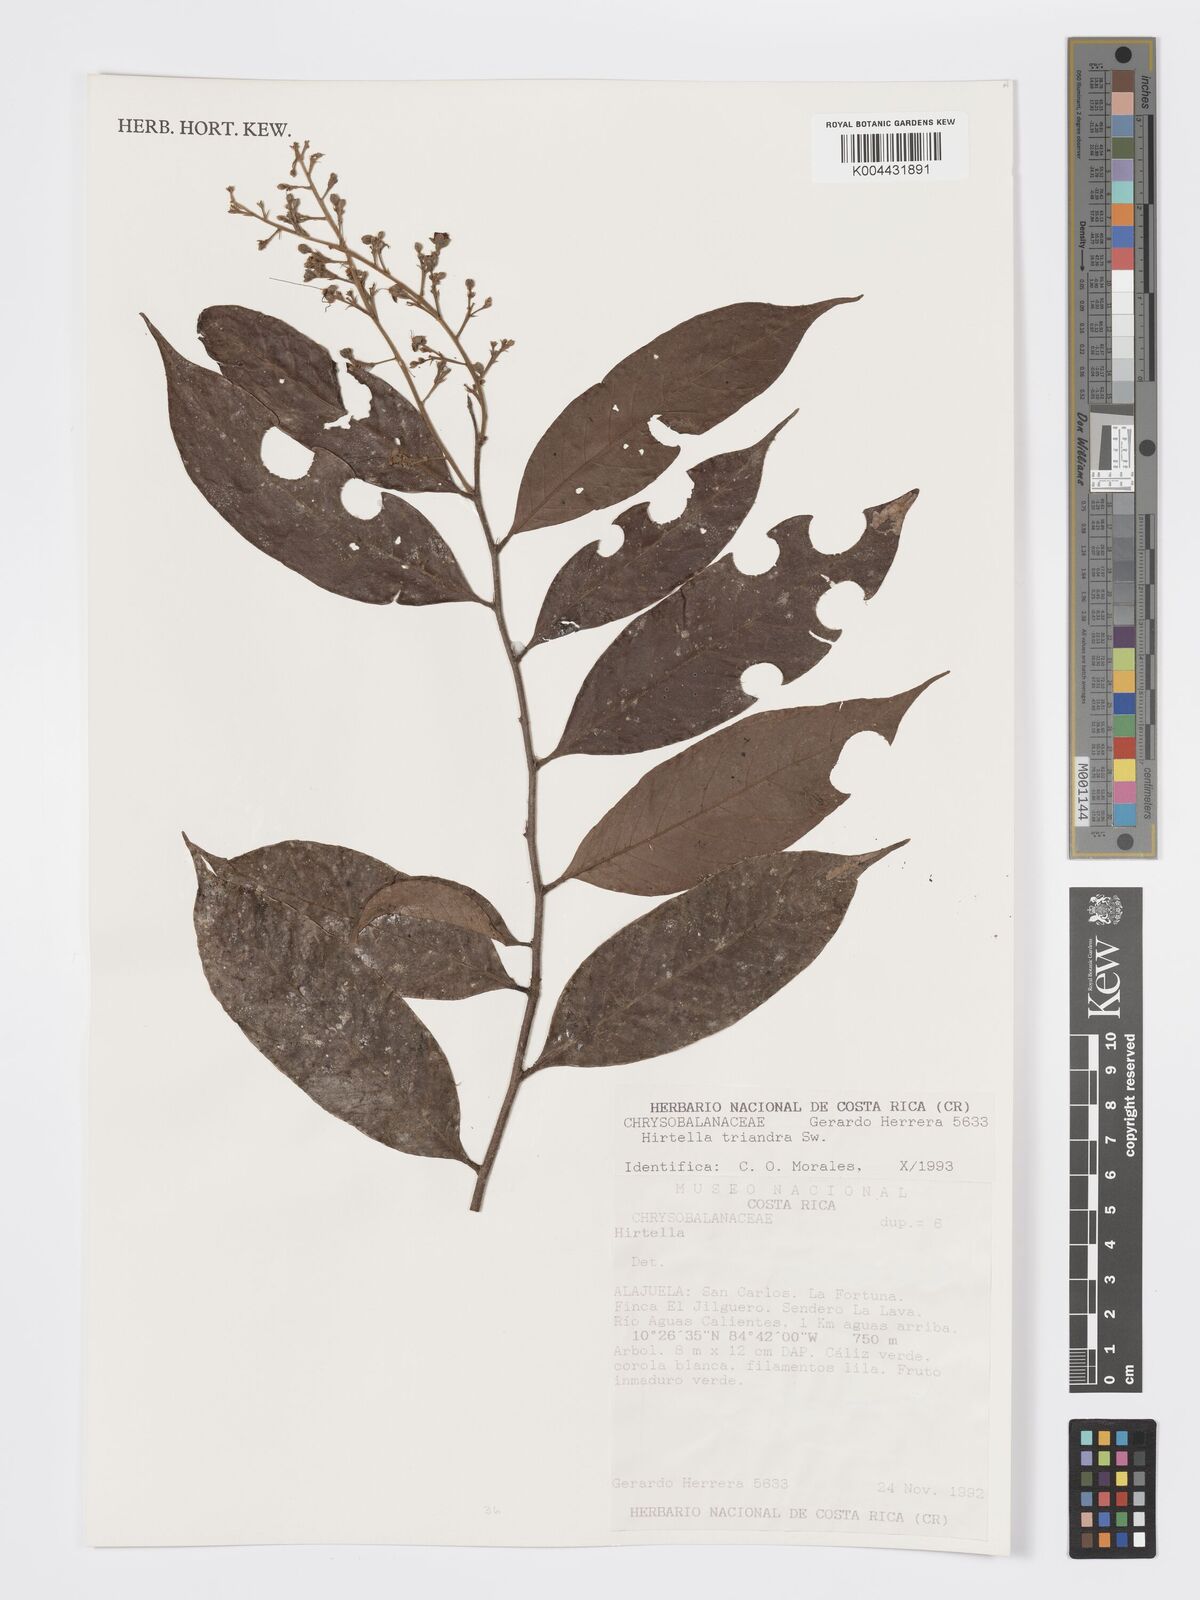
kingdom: Plantae
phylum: Tracheophyta
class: Magnoliopsida
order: Malpighiales
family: Chrysobalanaceae
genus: Hirtella
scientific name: Hirtella triandra
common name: Hairy plum
